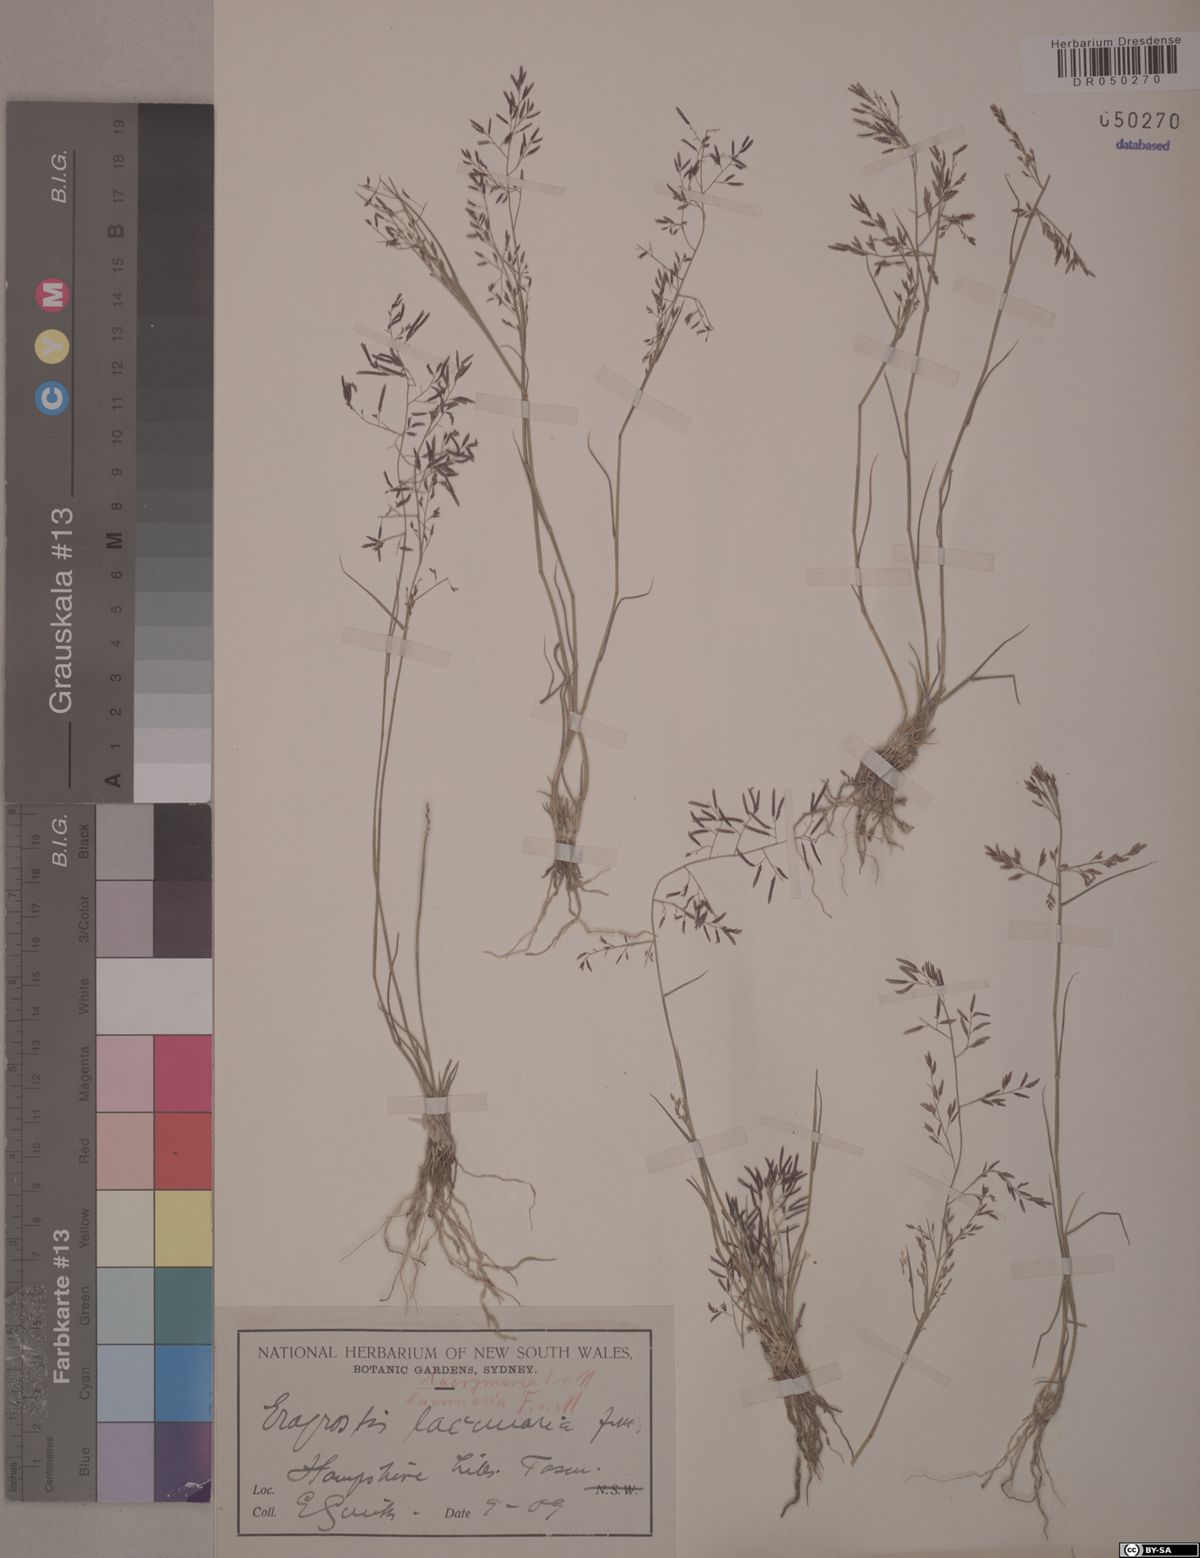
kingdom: Plantae
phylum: Tracheophyta
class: Liliopsida
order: Poales
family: Poaceae
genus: Eragrostis
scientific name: Eragrostis lacunaria
